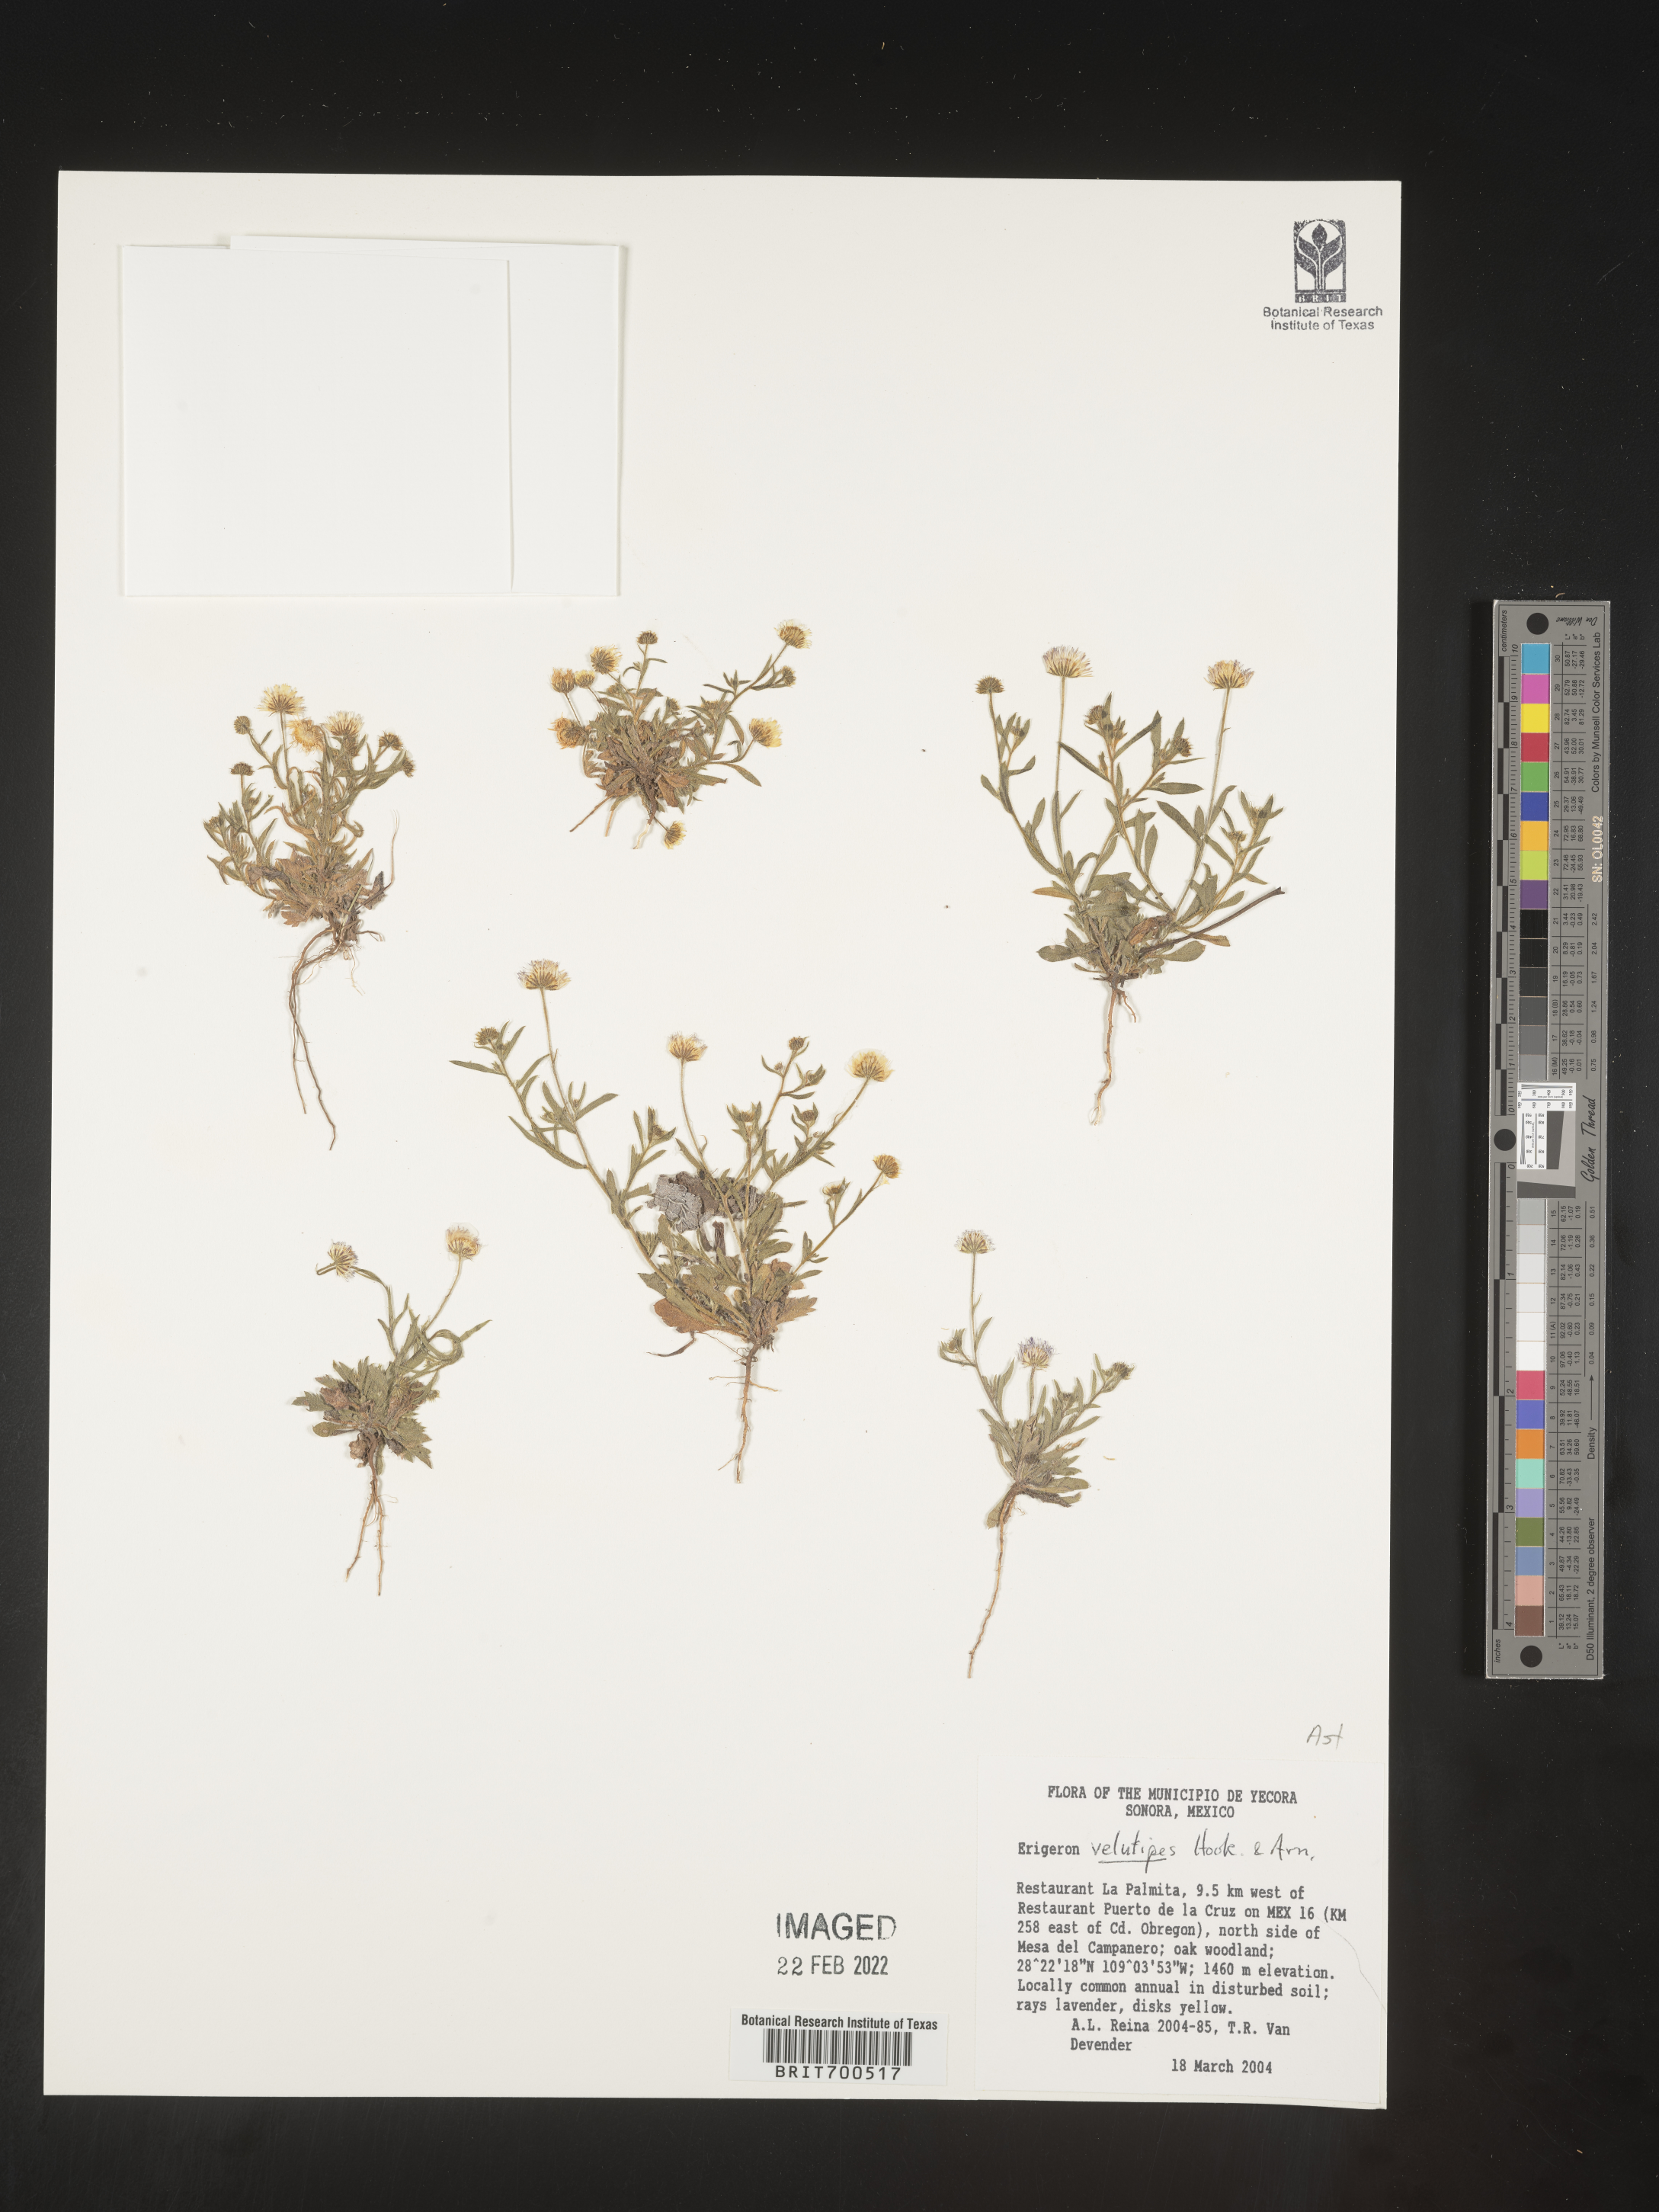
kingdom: Plantae
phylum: Tracheophyta
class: Magnoliopsida
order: Asterales
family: Asteraceae
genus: Erigeron
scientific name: Erigeron versicolor
